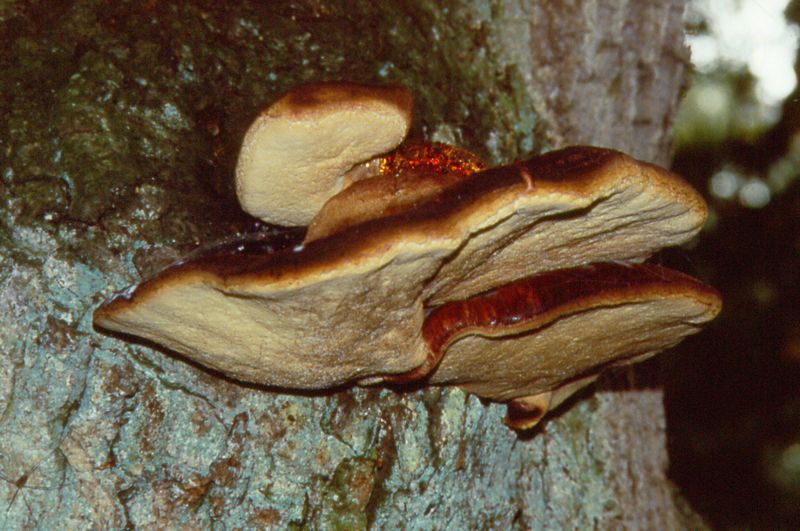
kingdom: Fungi
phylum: Basidiomycota
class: Agaricomycetes
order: Agaricales
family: Fistulinaceae
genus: Fistulina
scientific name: Fistulina hepatica
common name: oksetunge
